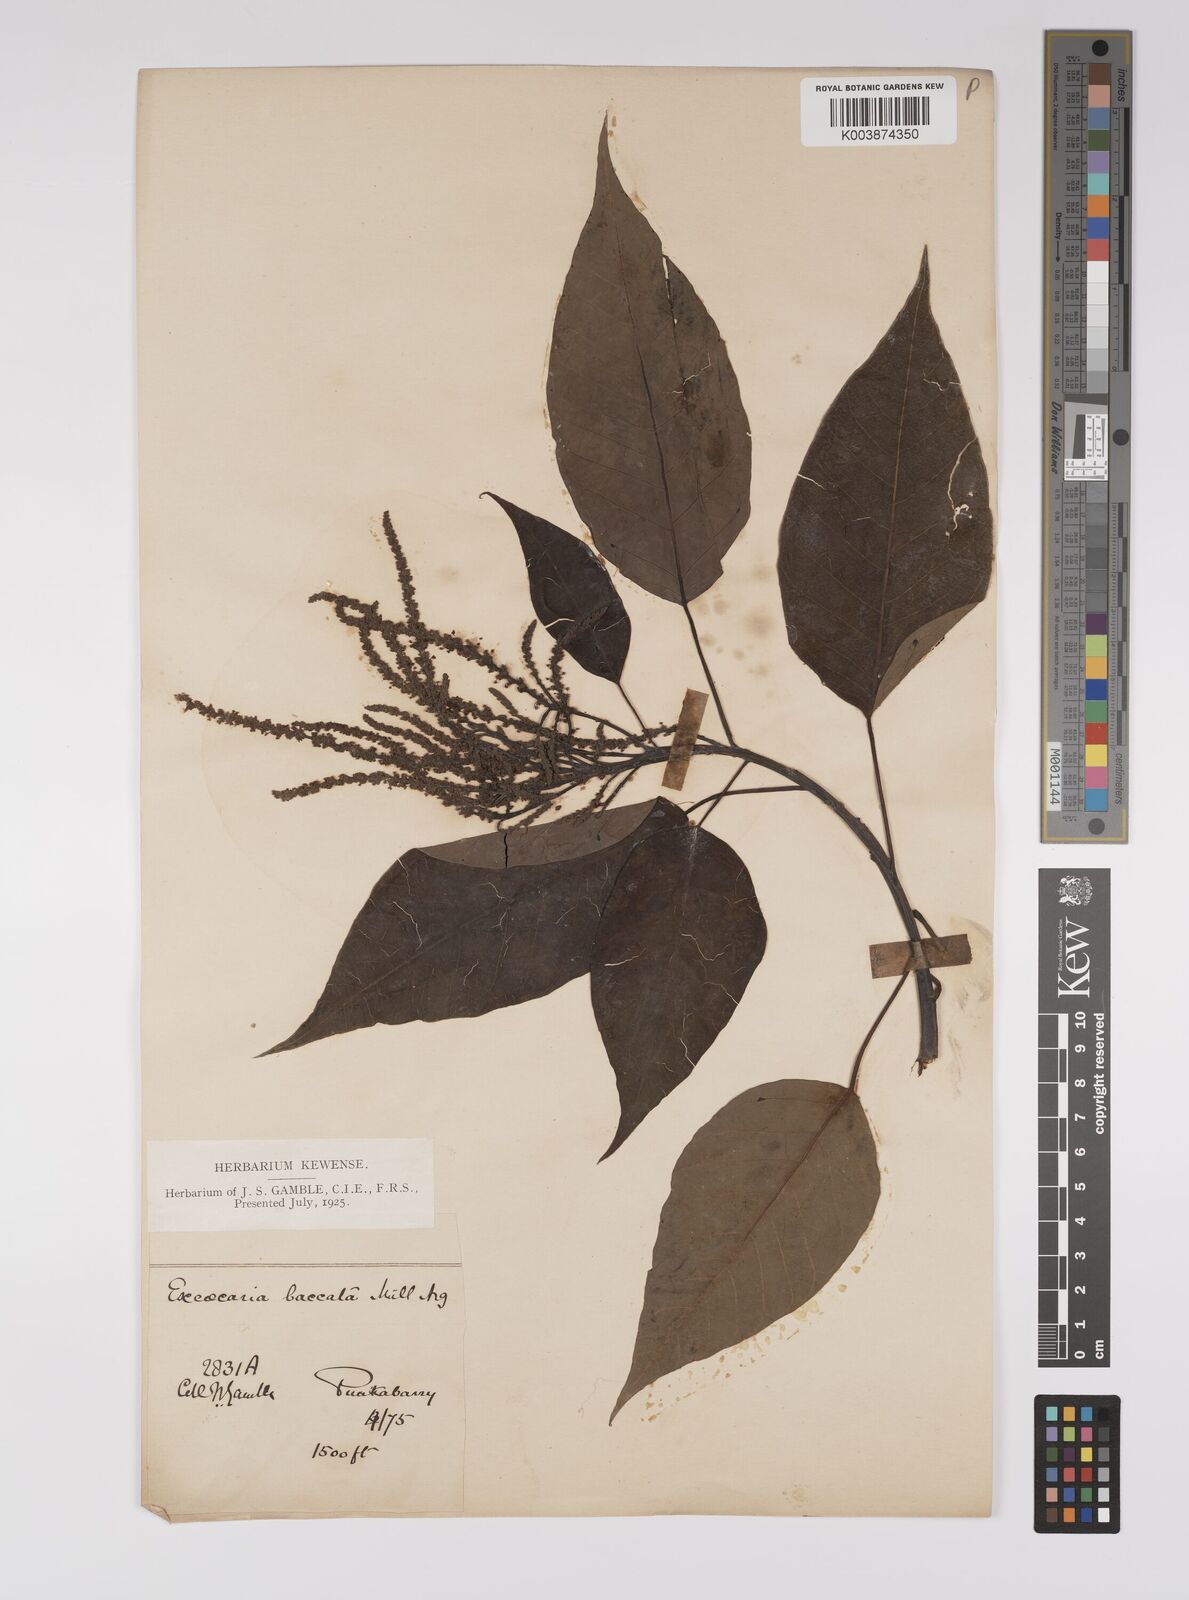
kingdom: Plantae
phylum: Tracheophyta
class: Magnoliopsida
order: Malpighiales
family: Euphorbiaceae
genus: Balakata
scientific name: Balakata baccata
